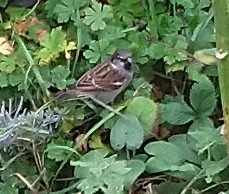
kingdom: Animalia
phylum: Chordata
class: Aves
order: Passeriformes
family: Passeridae
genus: Passer
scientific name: Passer domesticus
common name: Gråspurv
